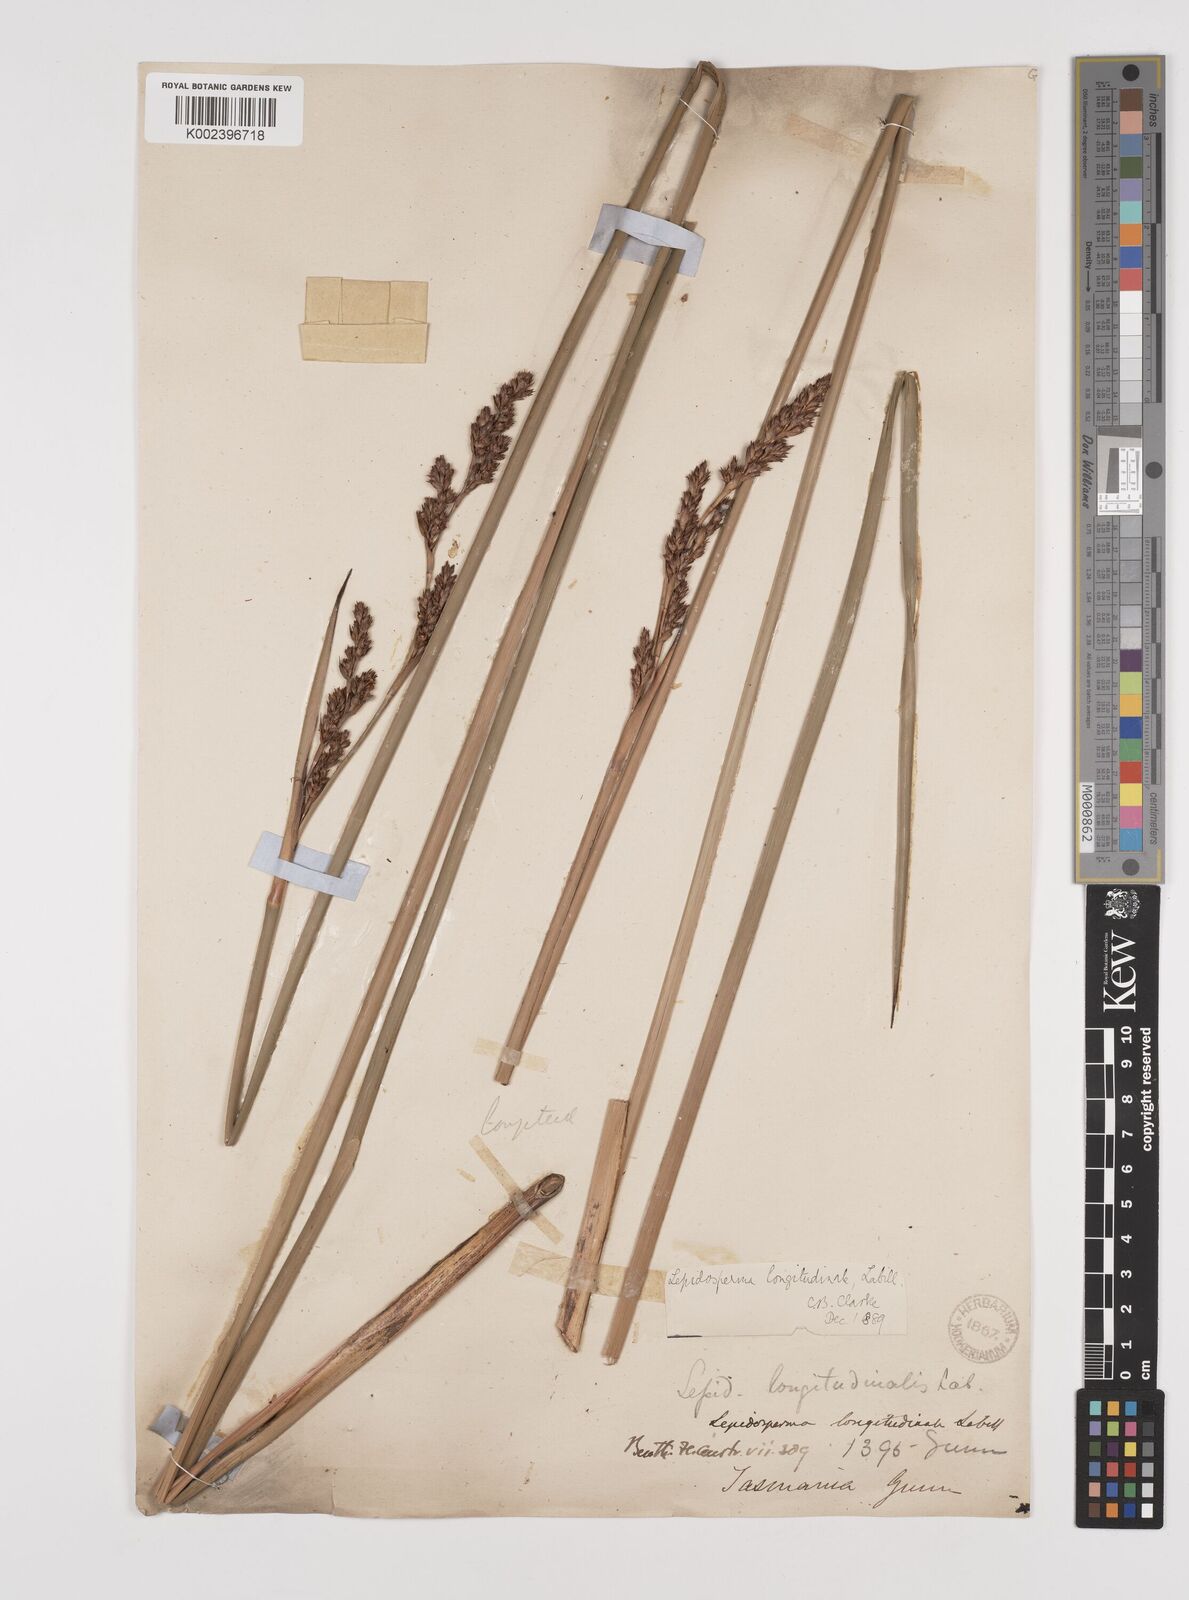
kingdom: Plantae
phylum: Tracheophyta
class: Liliopsida
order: Poales
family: Cyperaceae
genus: Lepidosperma
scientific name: Lepidosperma longitudinale
